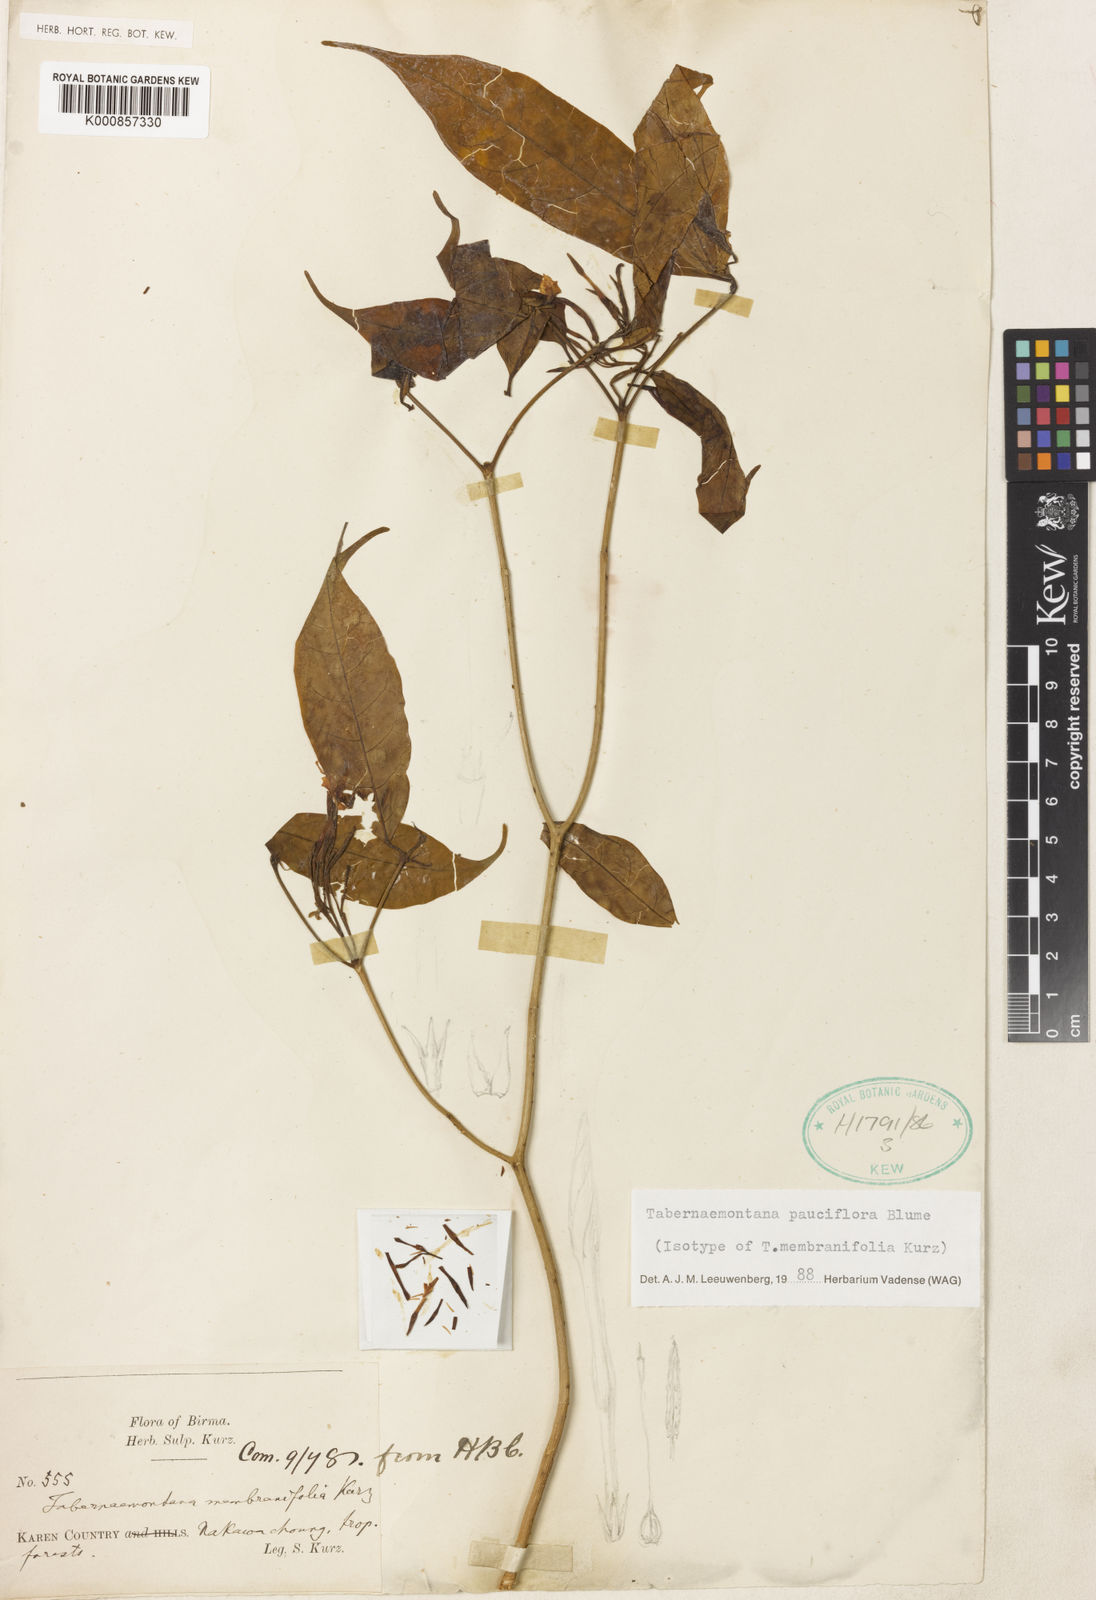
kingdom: Plantae
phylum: Tracheophyta
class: Magnoliopsida
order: Gentianales
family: Apocynaceae
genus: Tabernaemontana
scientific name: Tabernaemontana pauciflora
